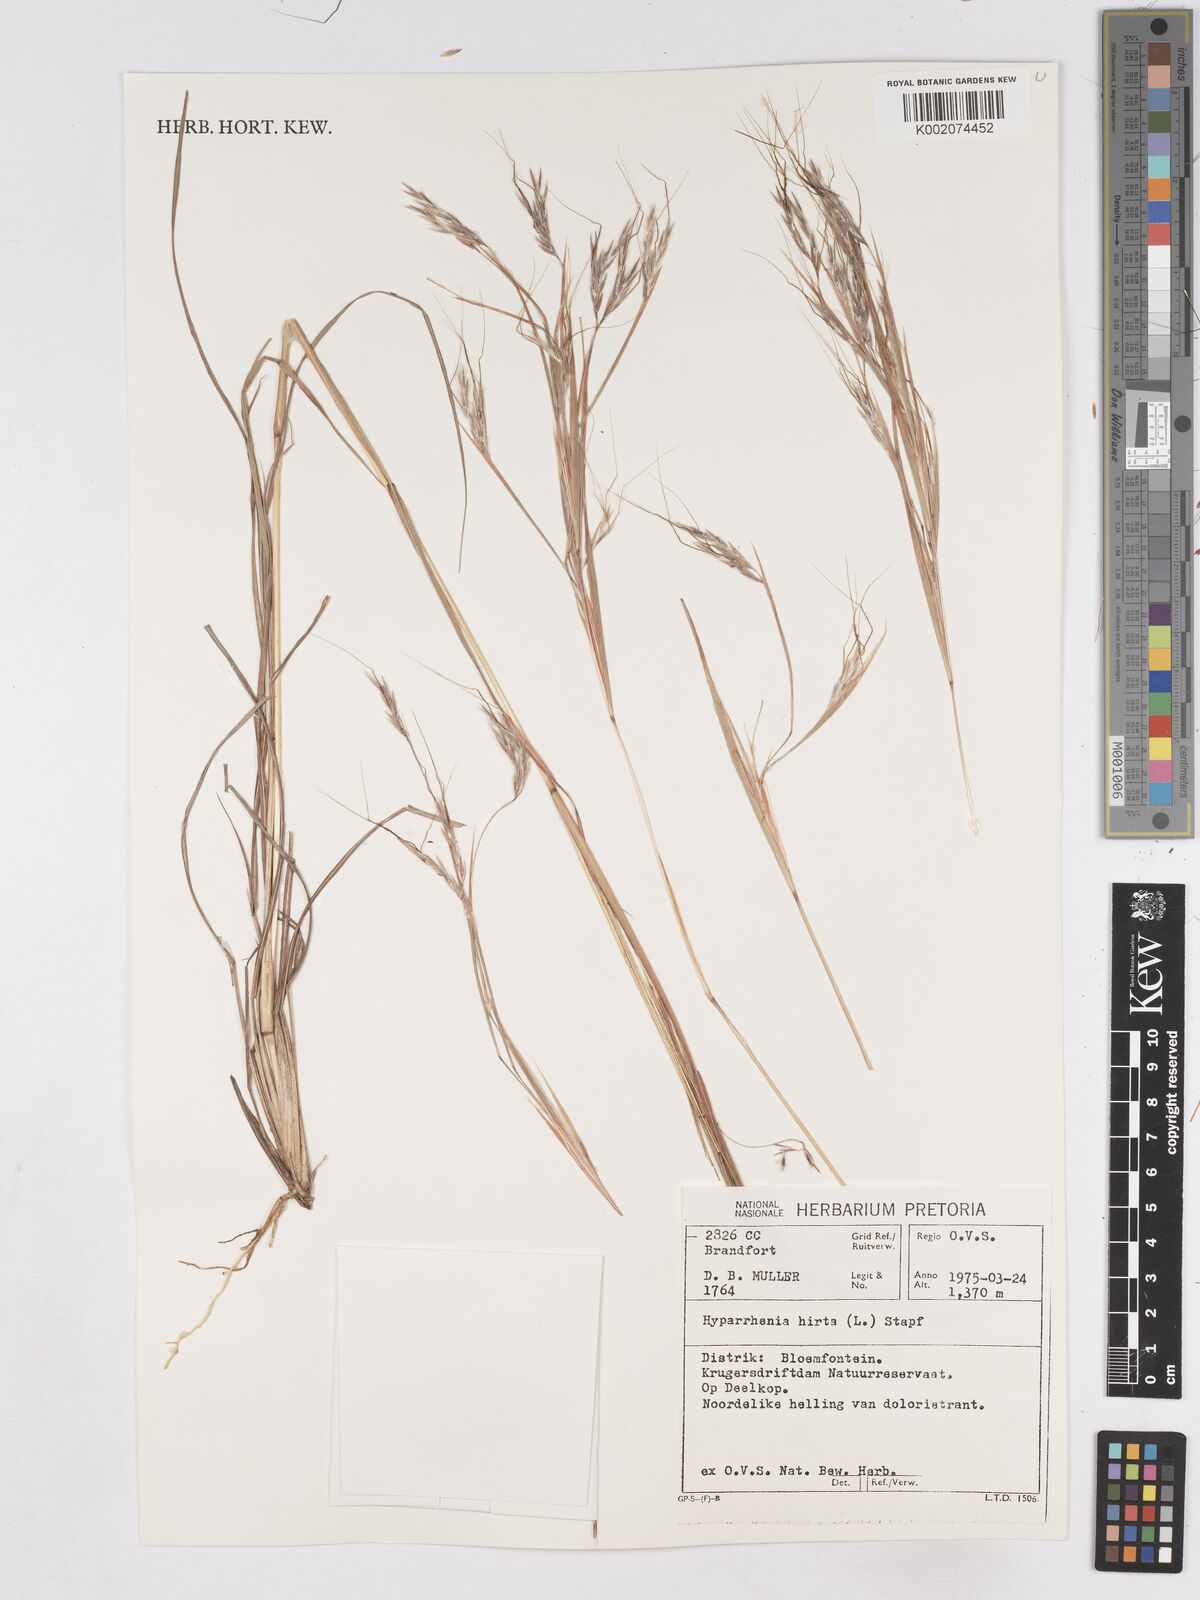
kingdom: Plantae
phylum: Tracheophyta
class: Liliopsida
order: Poales
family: Poaceae
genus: Hyparrhenia
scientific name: Hyparrhenia hirta
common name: Thatching grass
